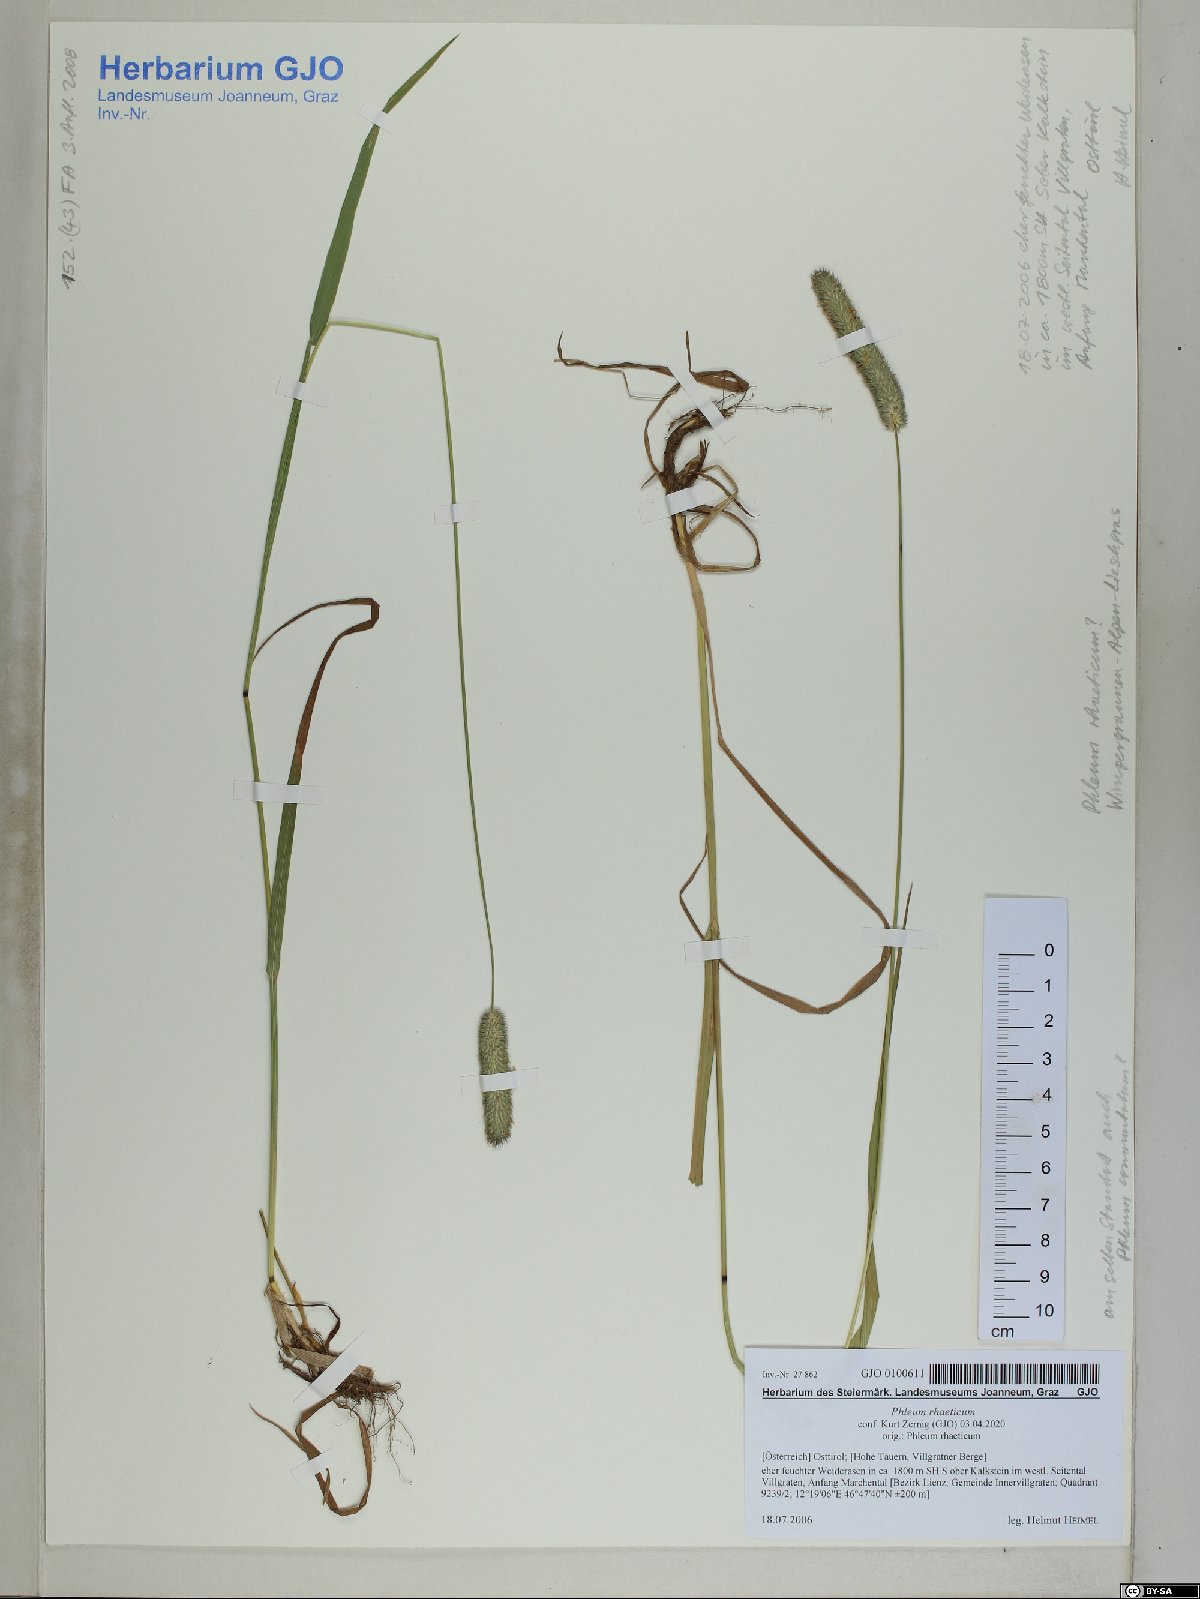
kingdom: Plantae
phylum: Tracheophyta
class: Liliopsida
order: Poales
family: Poaceae
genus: Phleum
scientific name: Phleum alpinum
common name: Alpine cat's-tail
